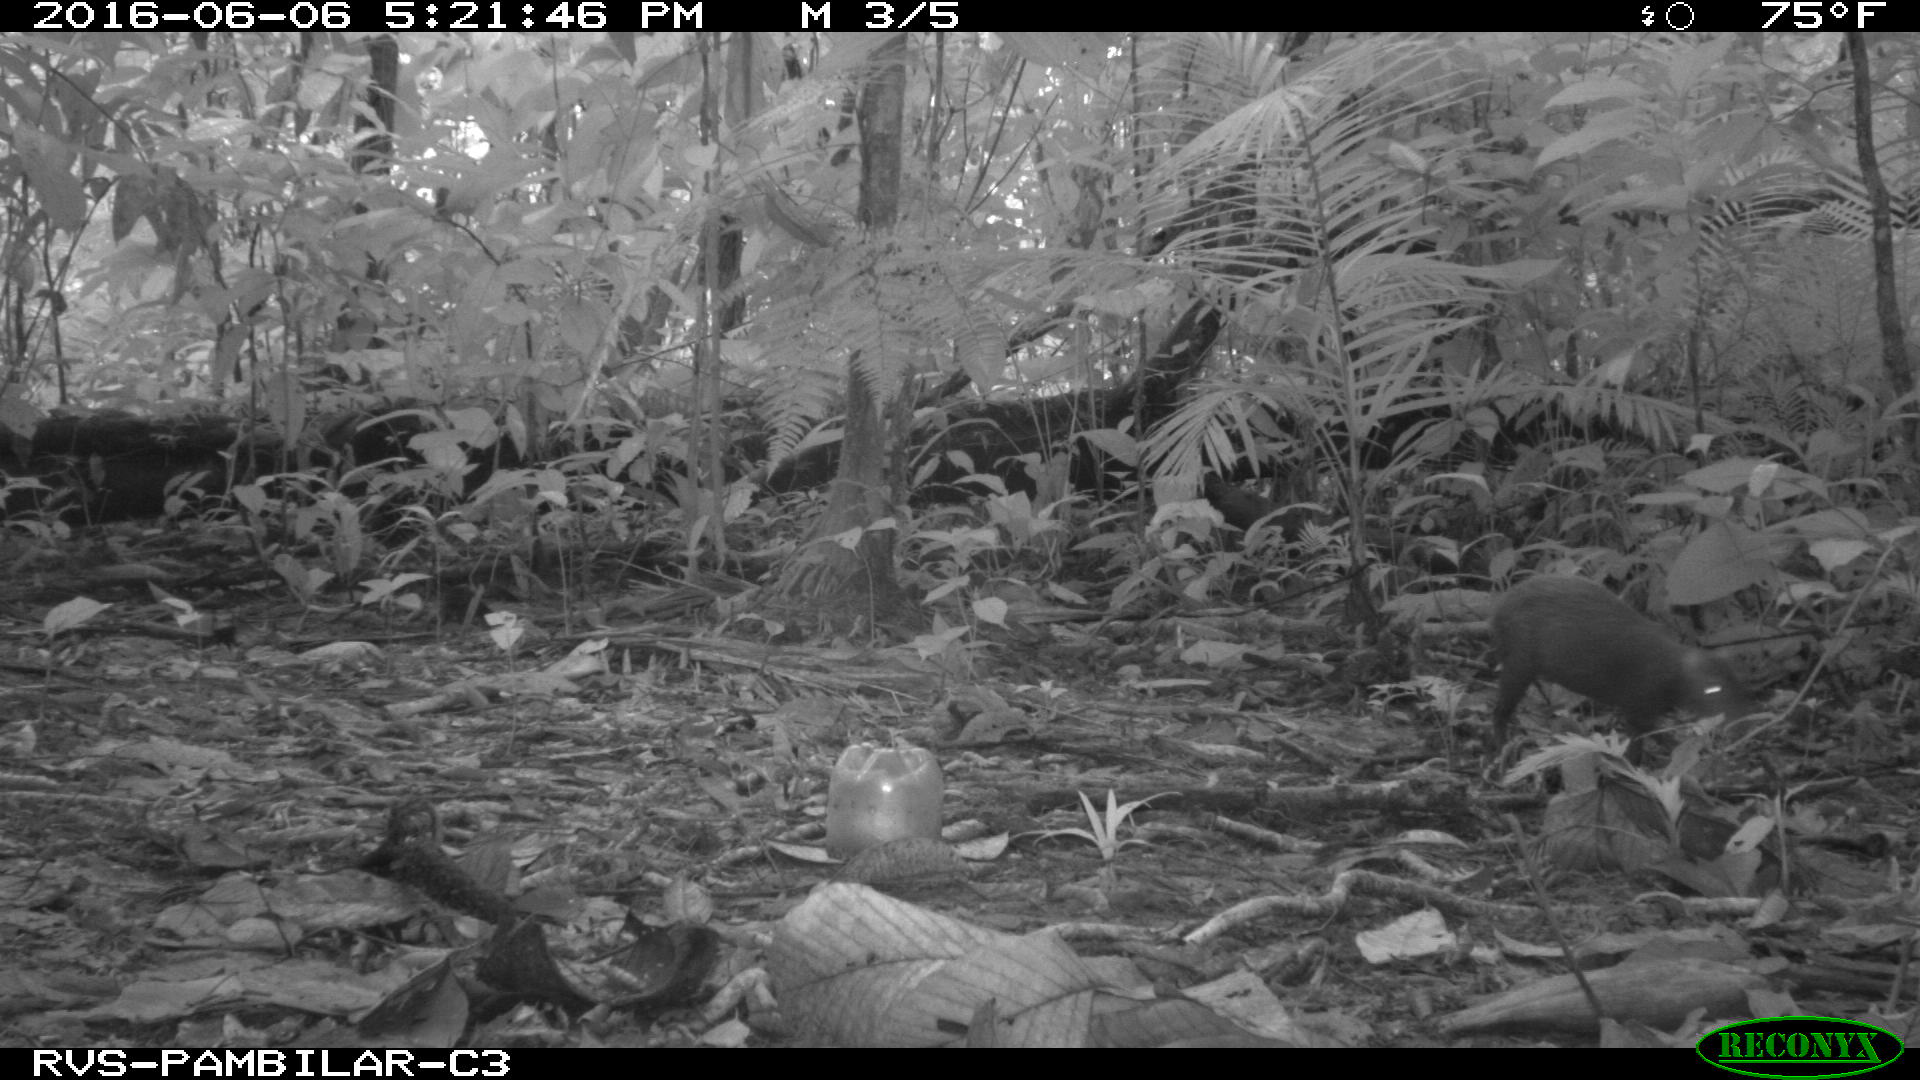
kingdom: Animalia
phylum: Chordata
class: Mammalia
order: Rodentia
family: Dasyproctidae
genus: Dasyprocta
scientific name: Dasyprocta punctata
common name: Central american agouti
